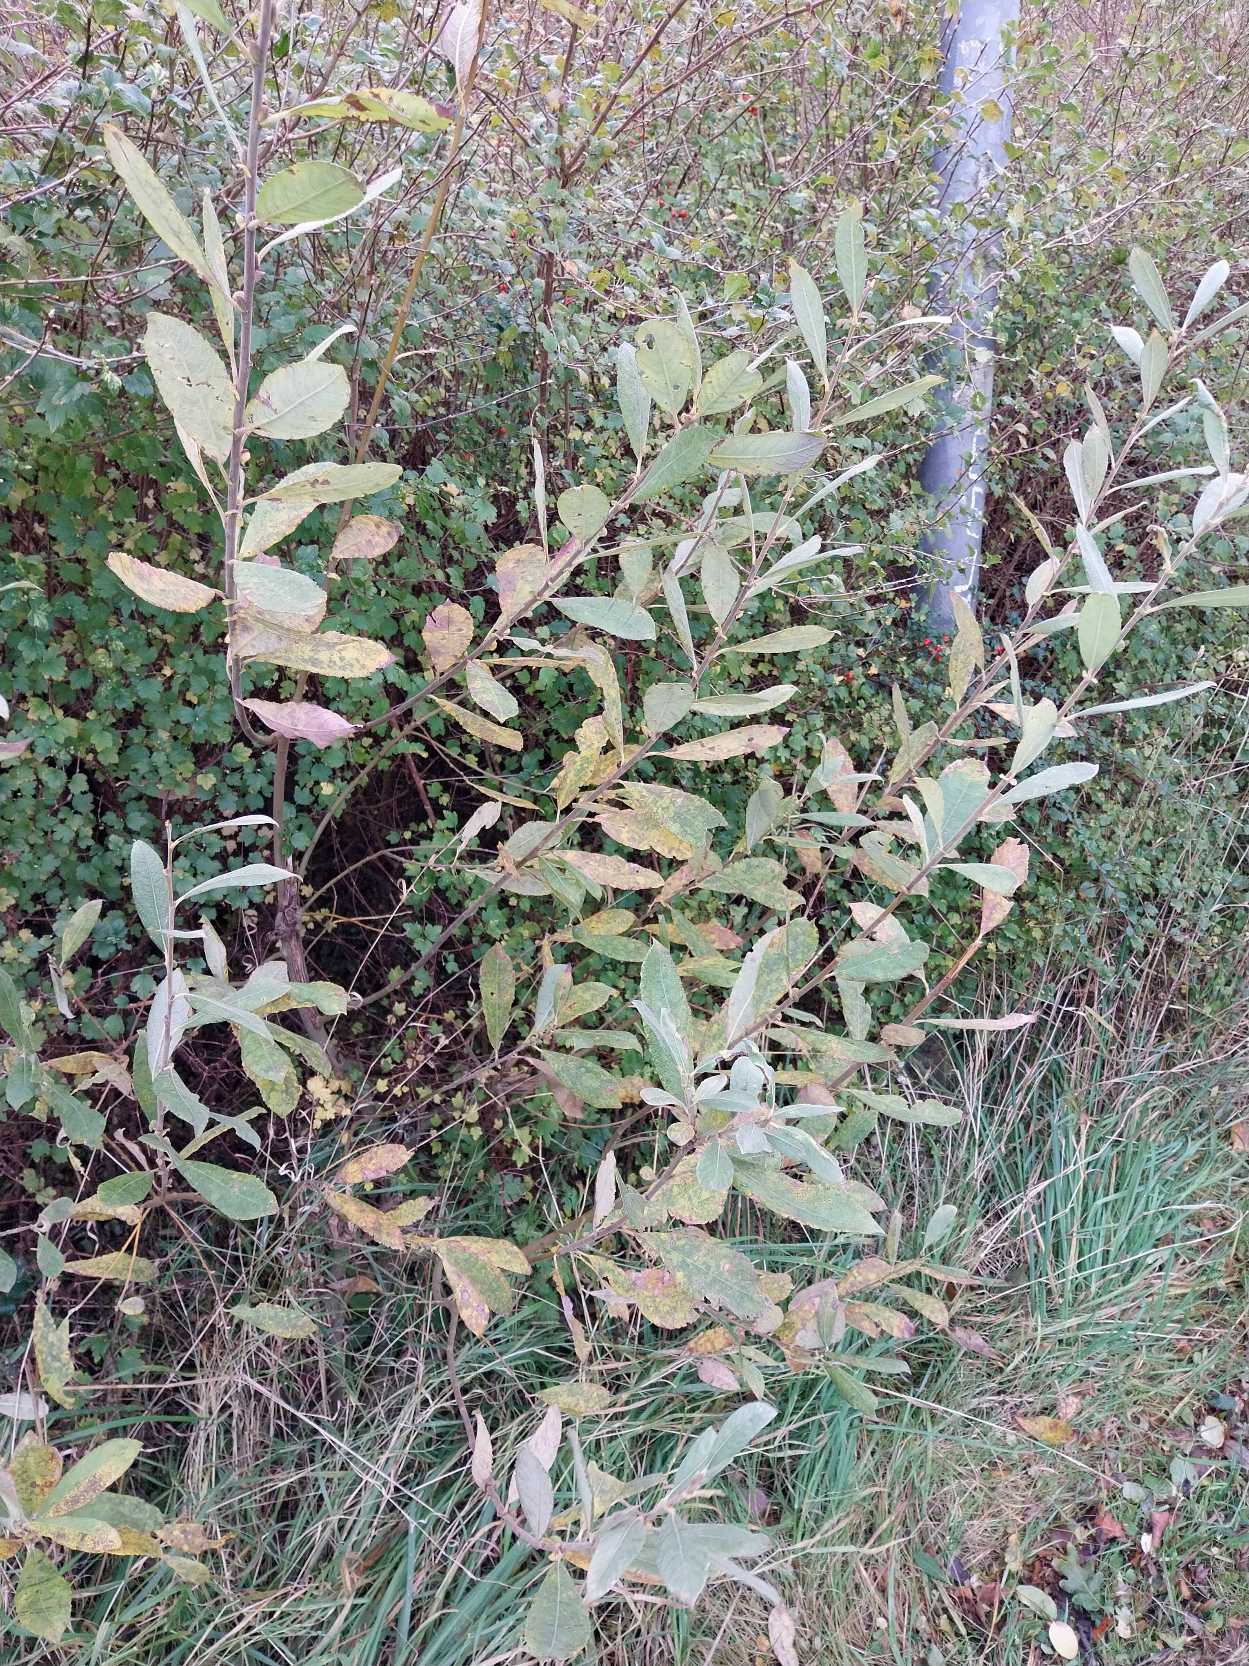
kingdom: Plantae
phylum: Tracheophyta
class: Magnoliopsida
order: Malpighiales
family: Salicaceae
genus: Salix
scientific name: Salix cinerea
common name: Grå-pil
